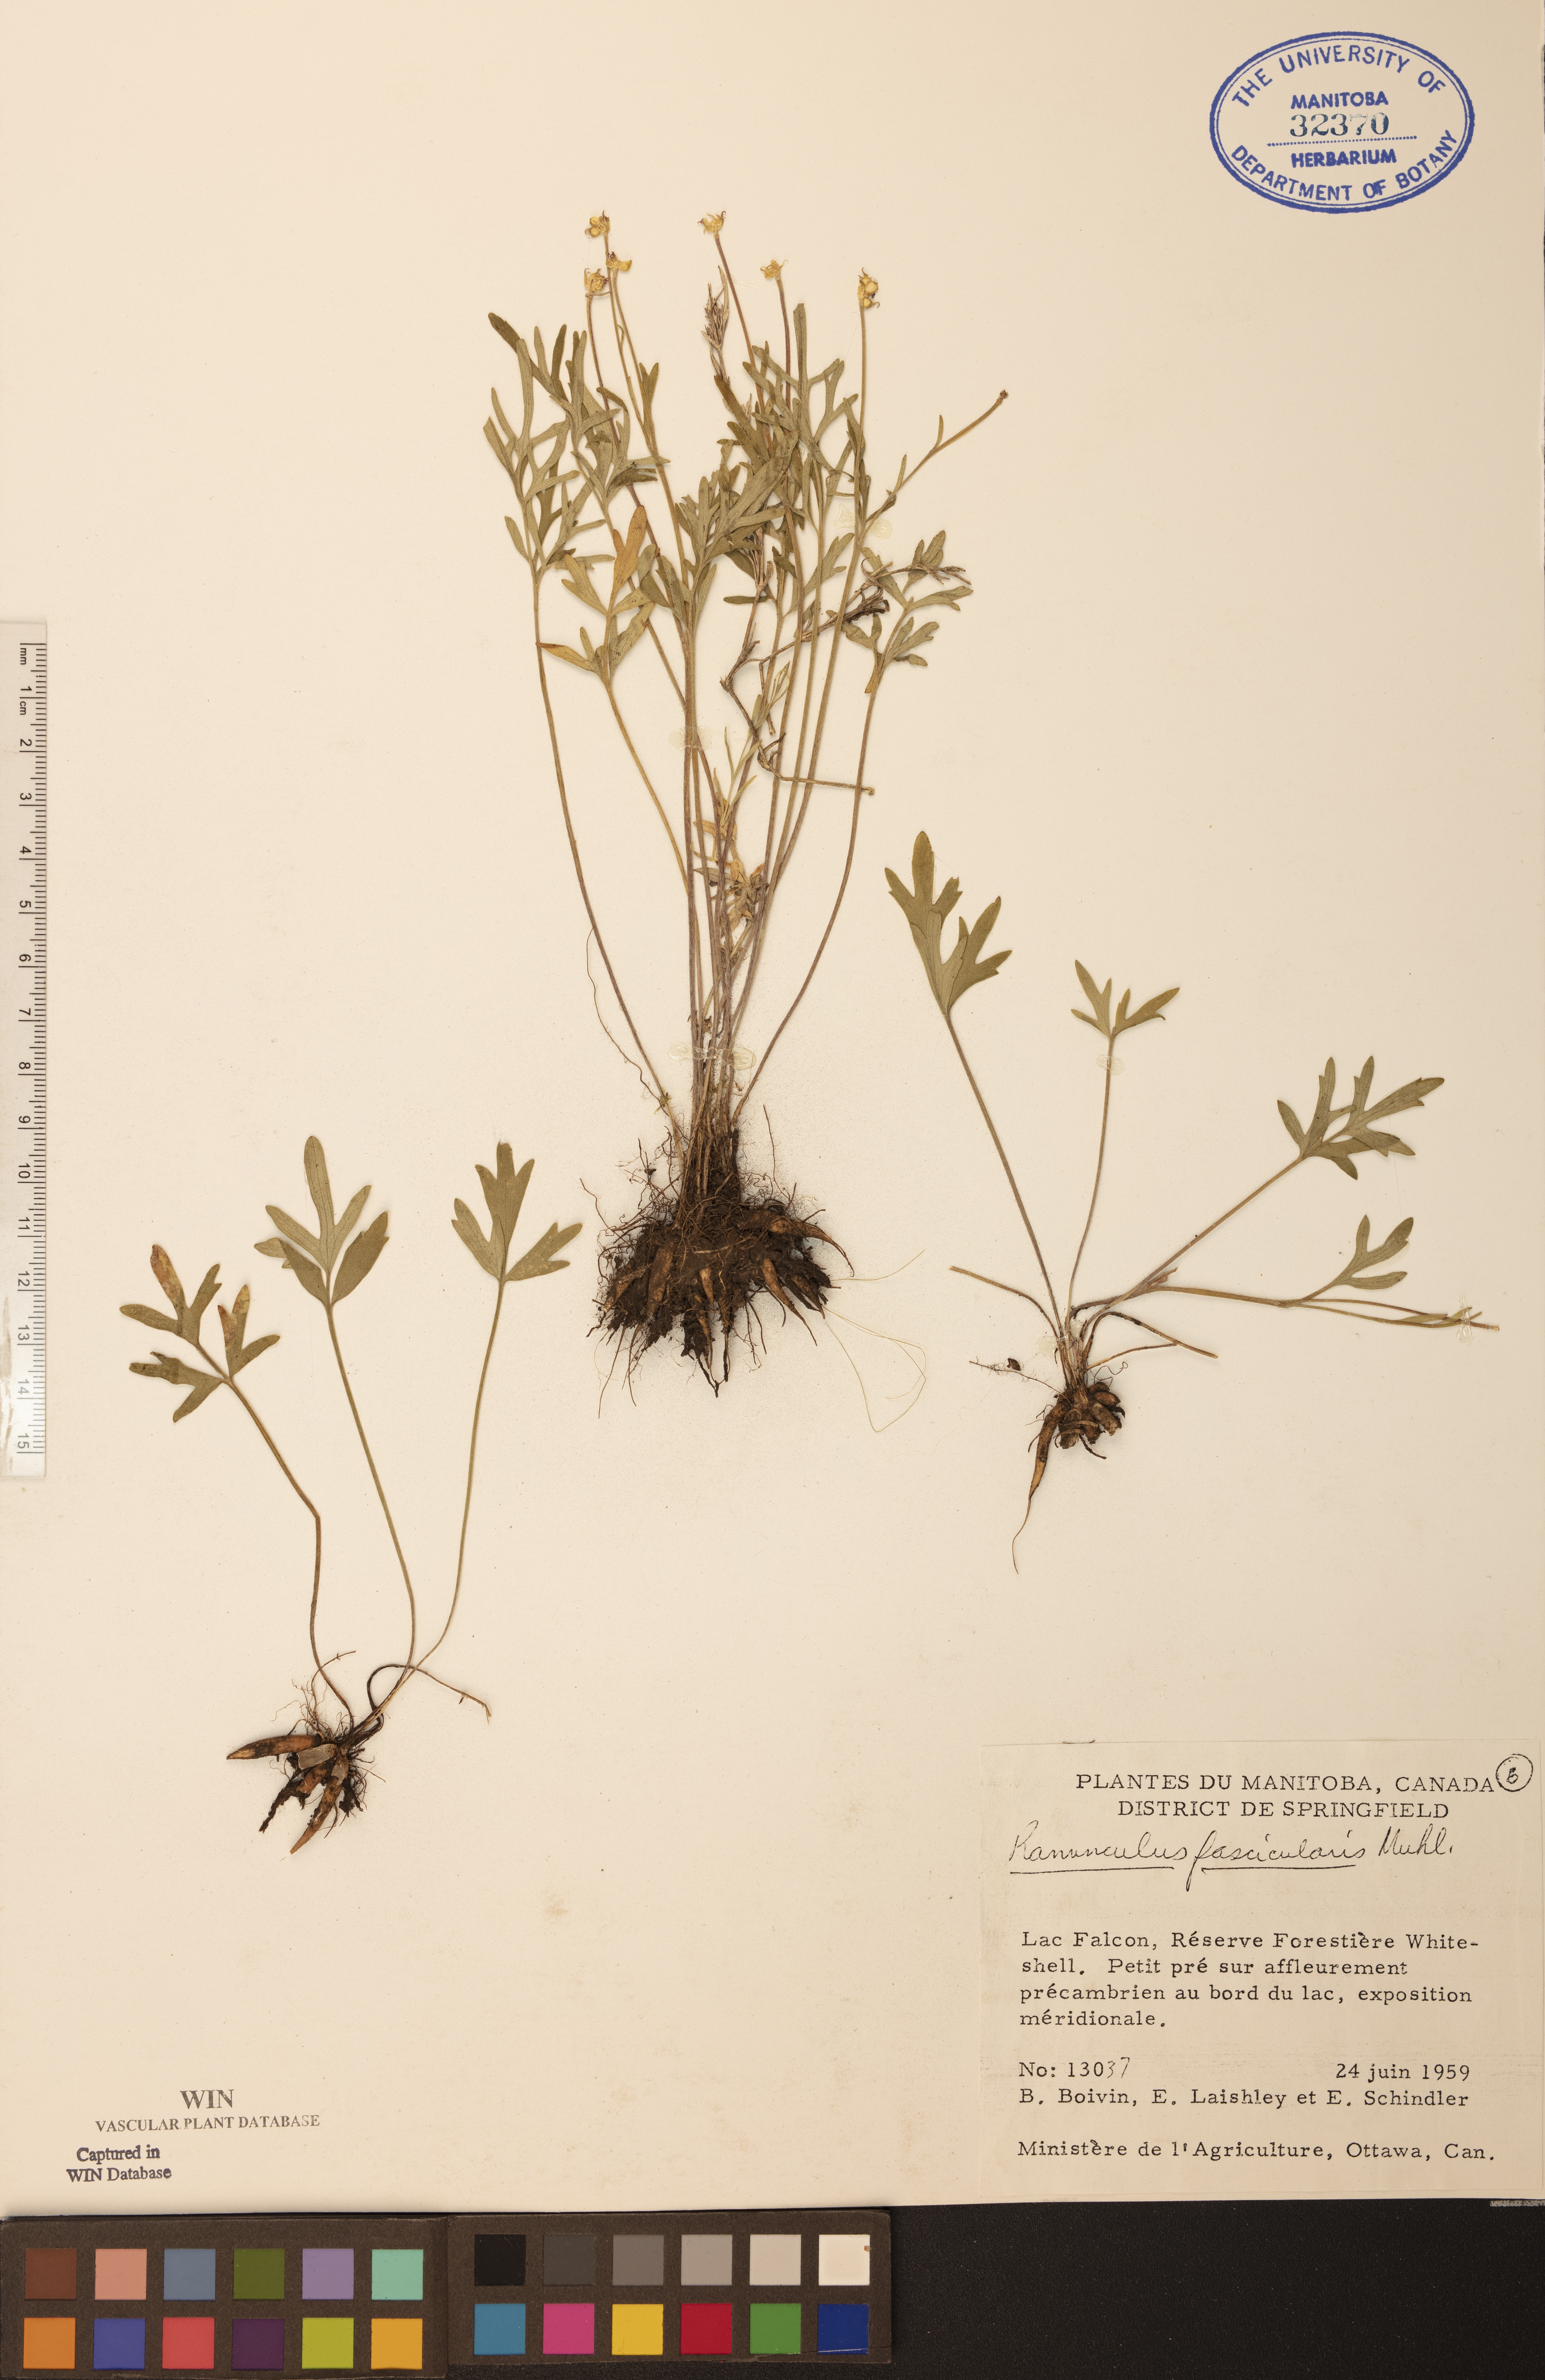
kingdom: Plantae
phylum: Tracheophyta
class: Magnoliopsida
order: Ranunculales
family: Ranunculaceae
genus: Ranunculus
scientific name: Ranunculus fascicularis
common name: Early buttercup
